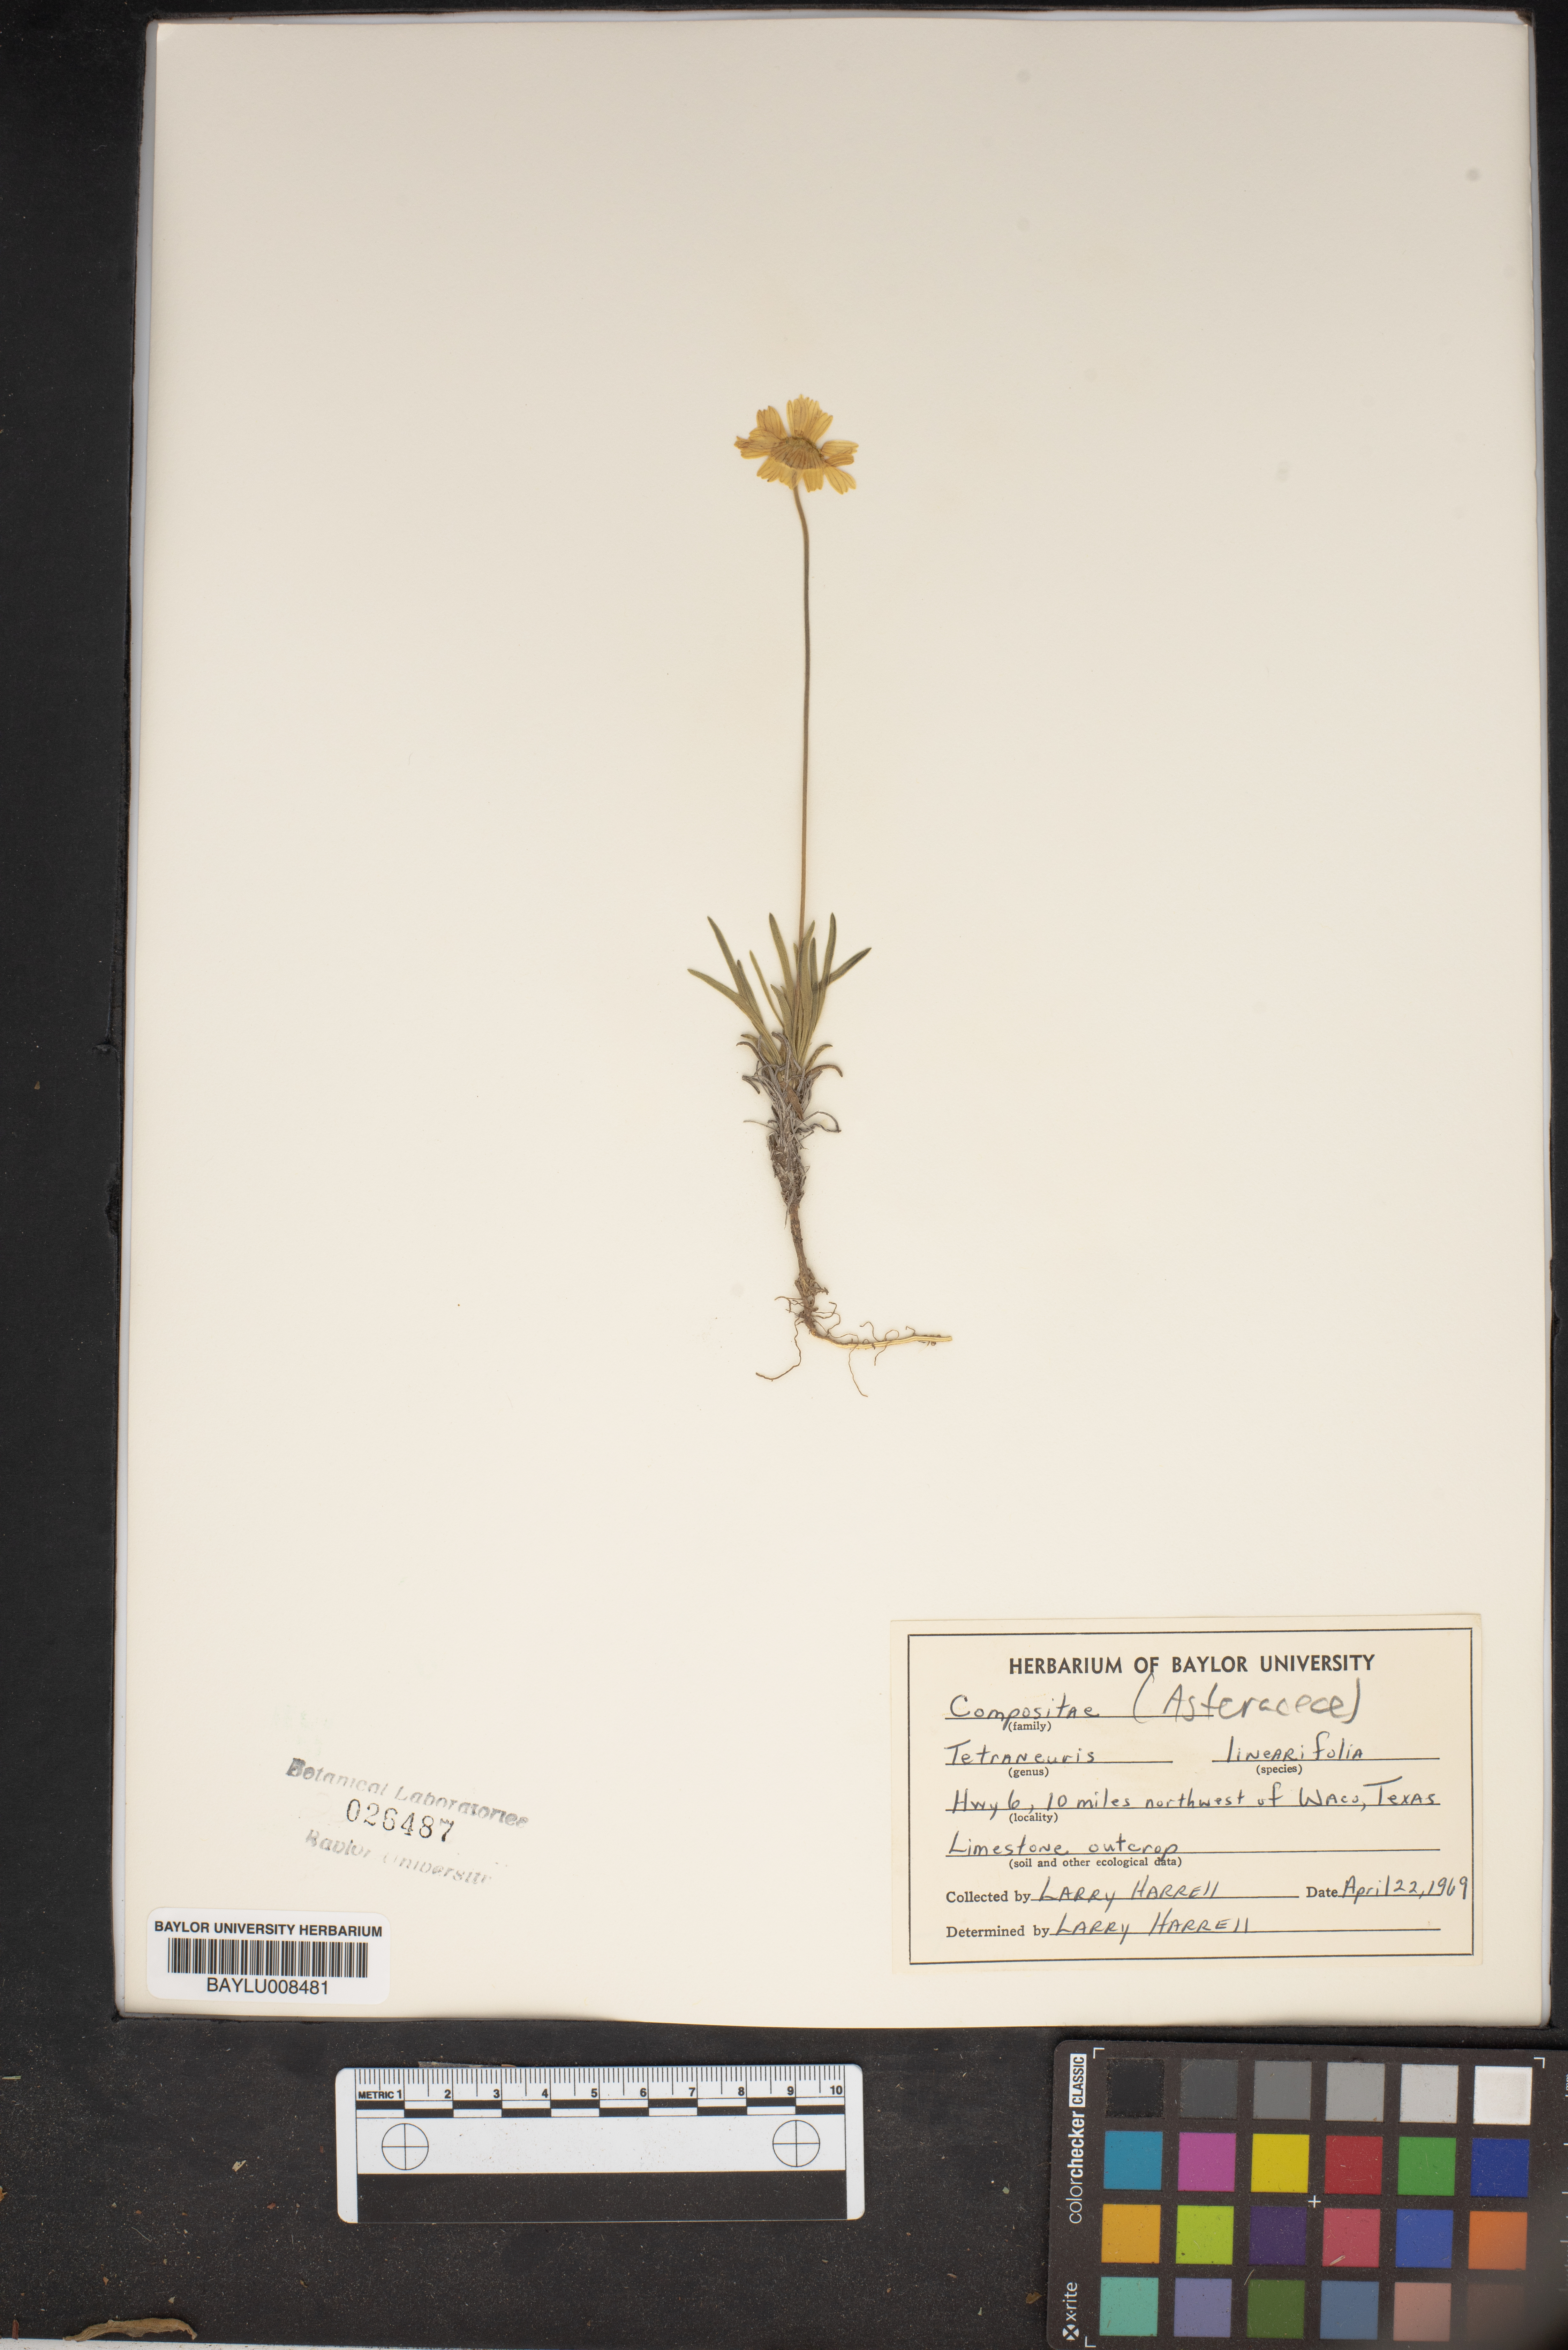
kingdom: Plantae
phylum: Tracheophyta
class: Magnoliopsida
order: Asterales
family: Asteraceae
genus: Tetraneuris
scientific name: Tetraneuris linearifolia
